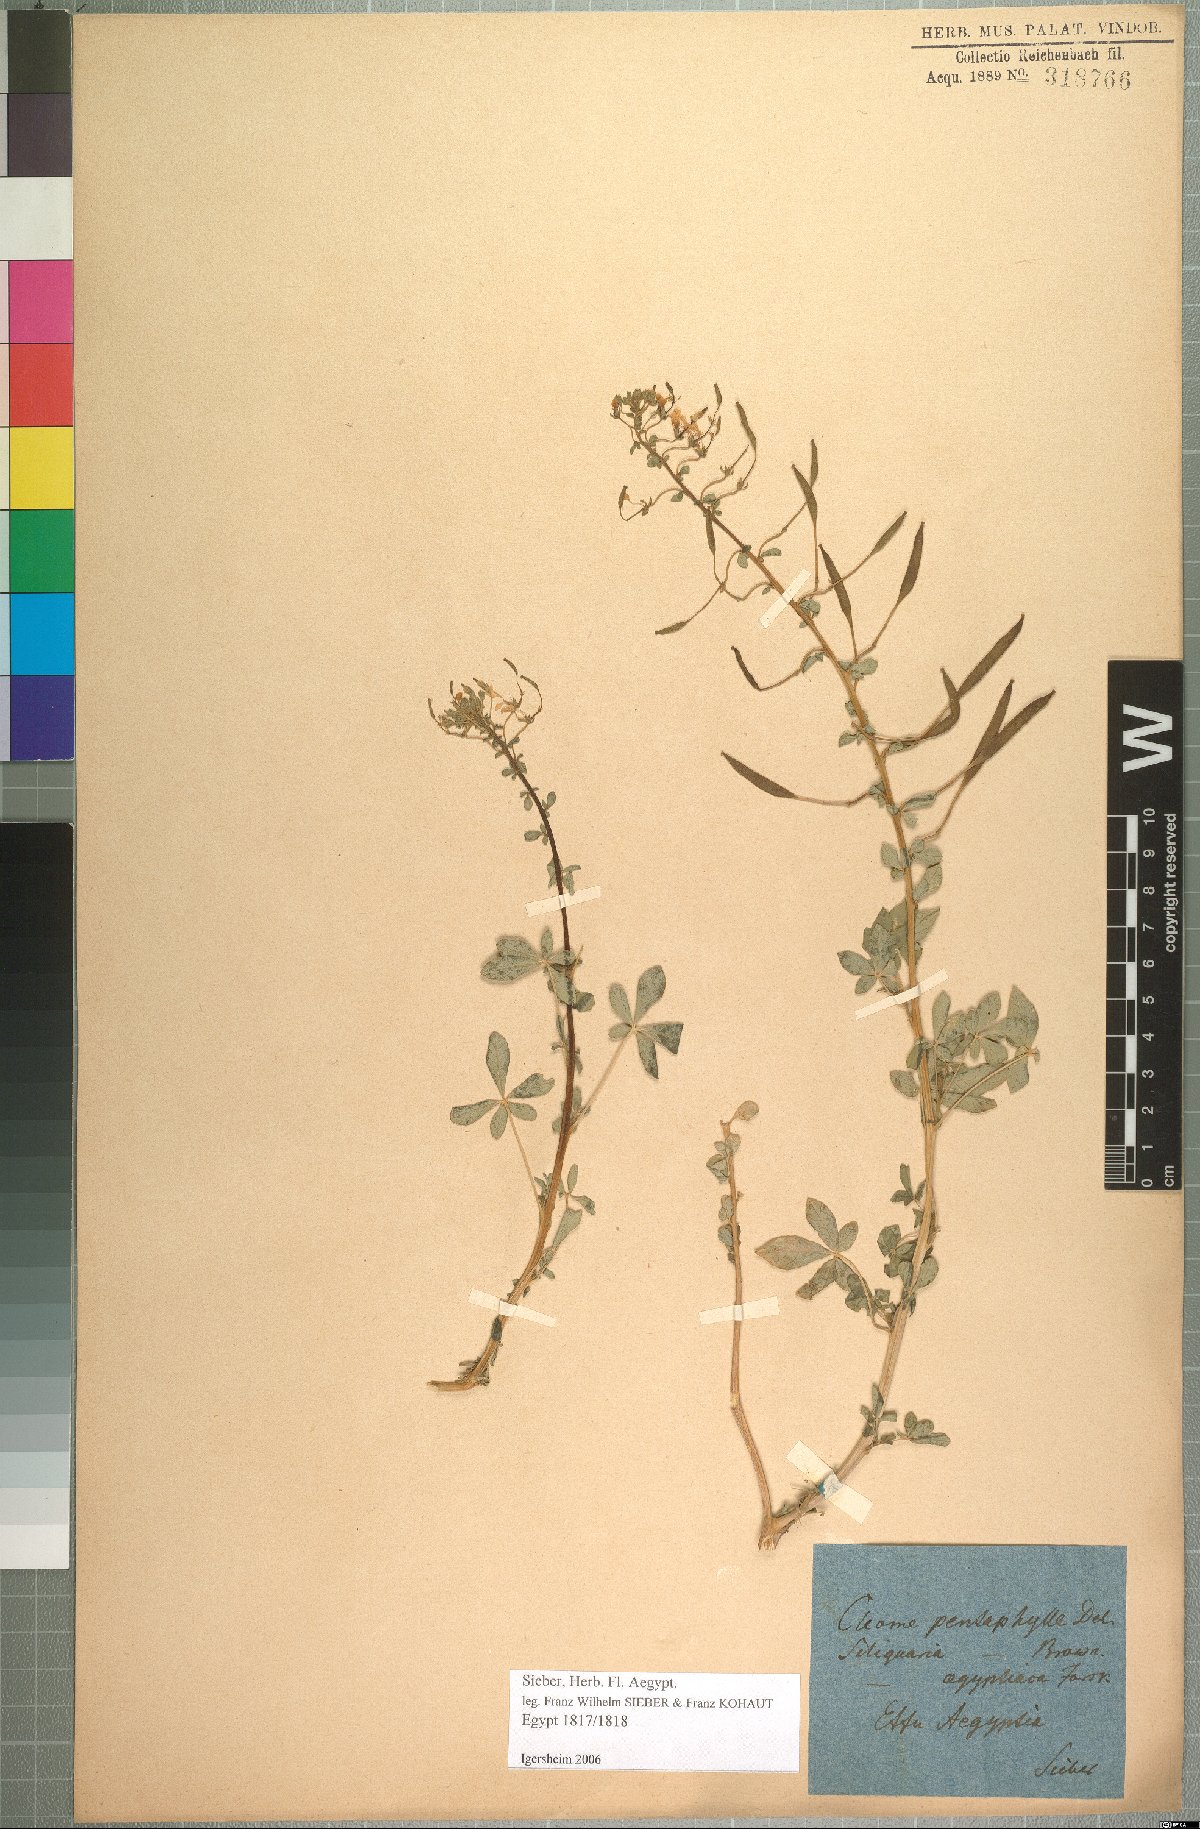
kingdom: Plantae
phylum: Tracheophyta
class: Magnoliopsida
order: Brassicales
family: Cleomaceae
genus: Gynandropsis
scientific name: Gynandropsis gynandra
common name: Spiderwisp
